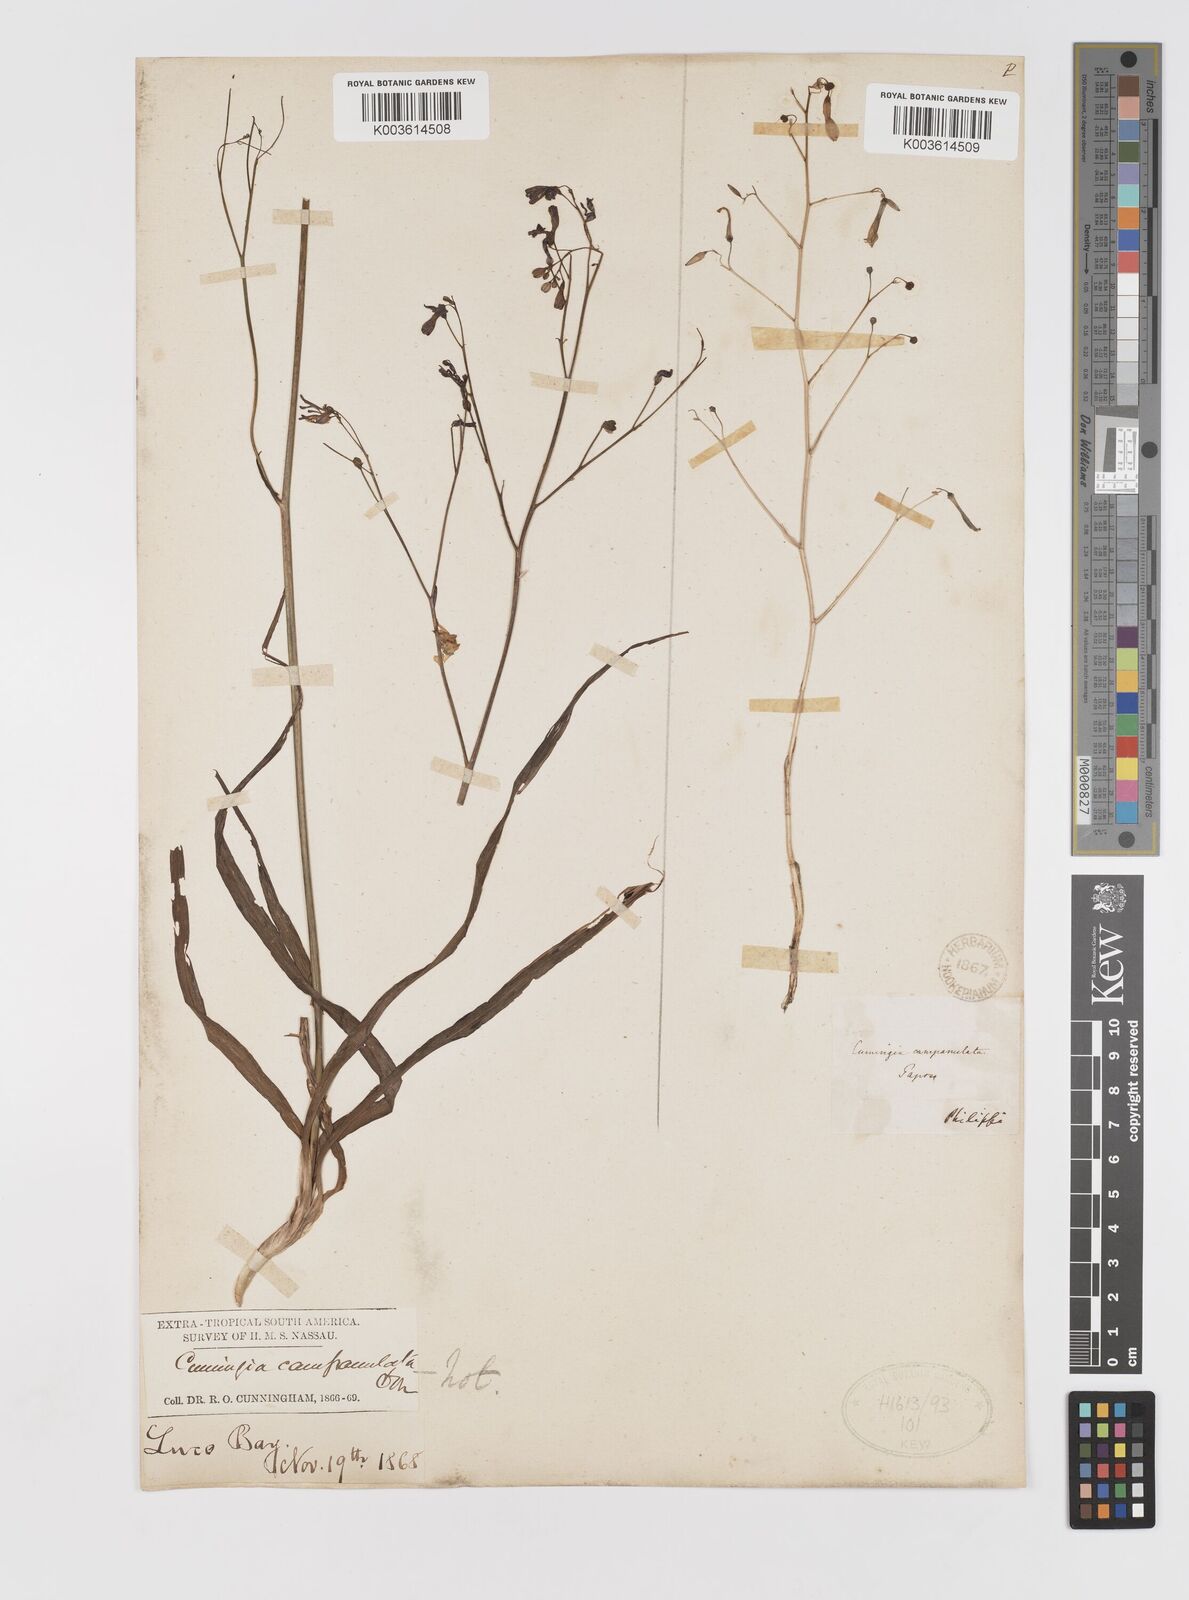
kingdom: Plantae
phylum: Tracheophyta
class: Liliopsida
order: Asparagales
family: Tecophilaeaceae
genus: Conanthera
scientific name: Conanthera campanulata
